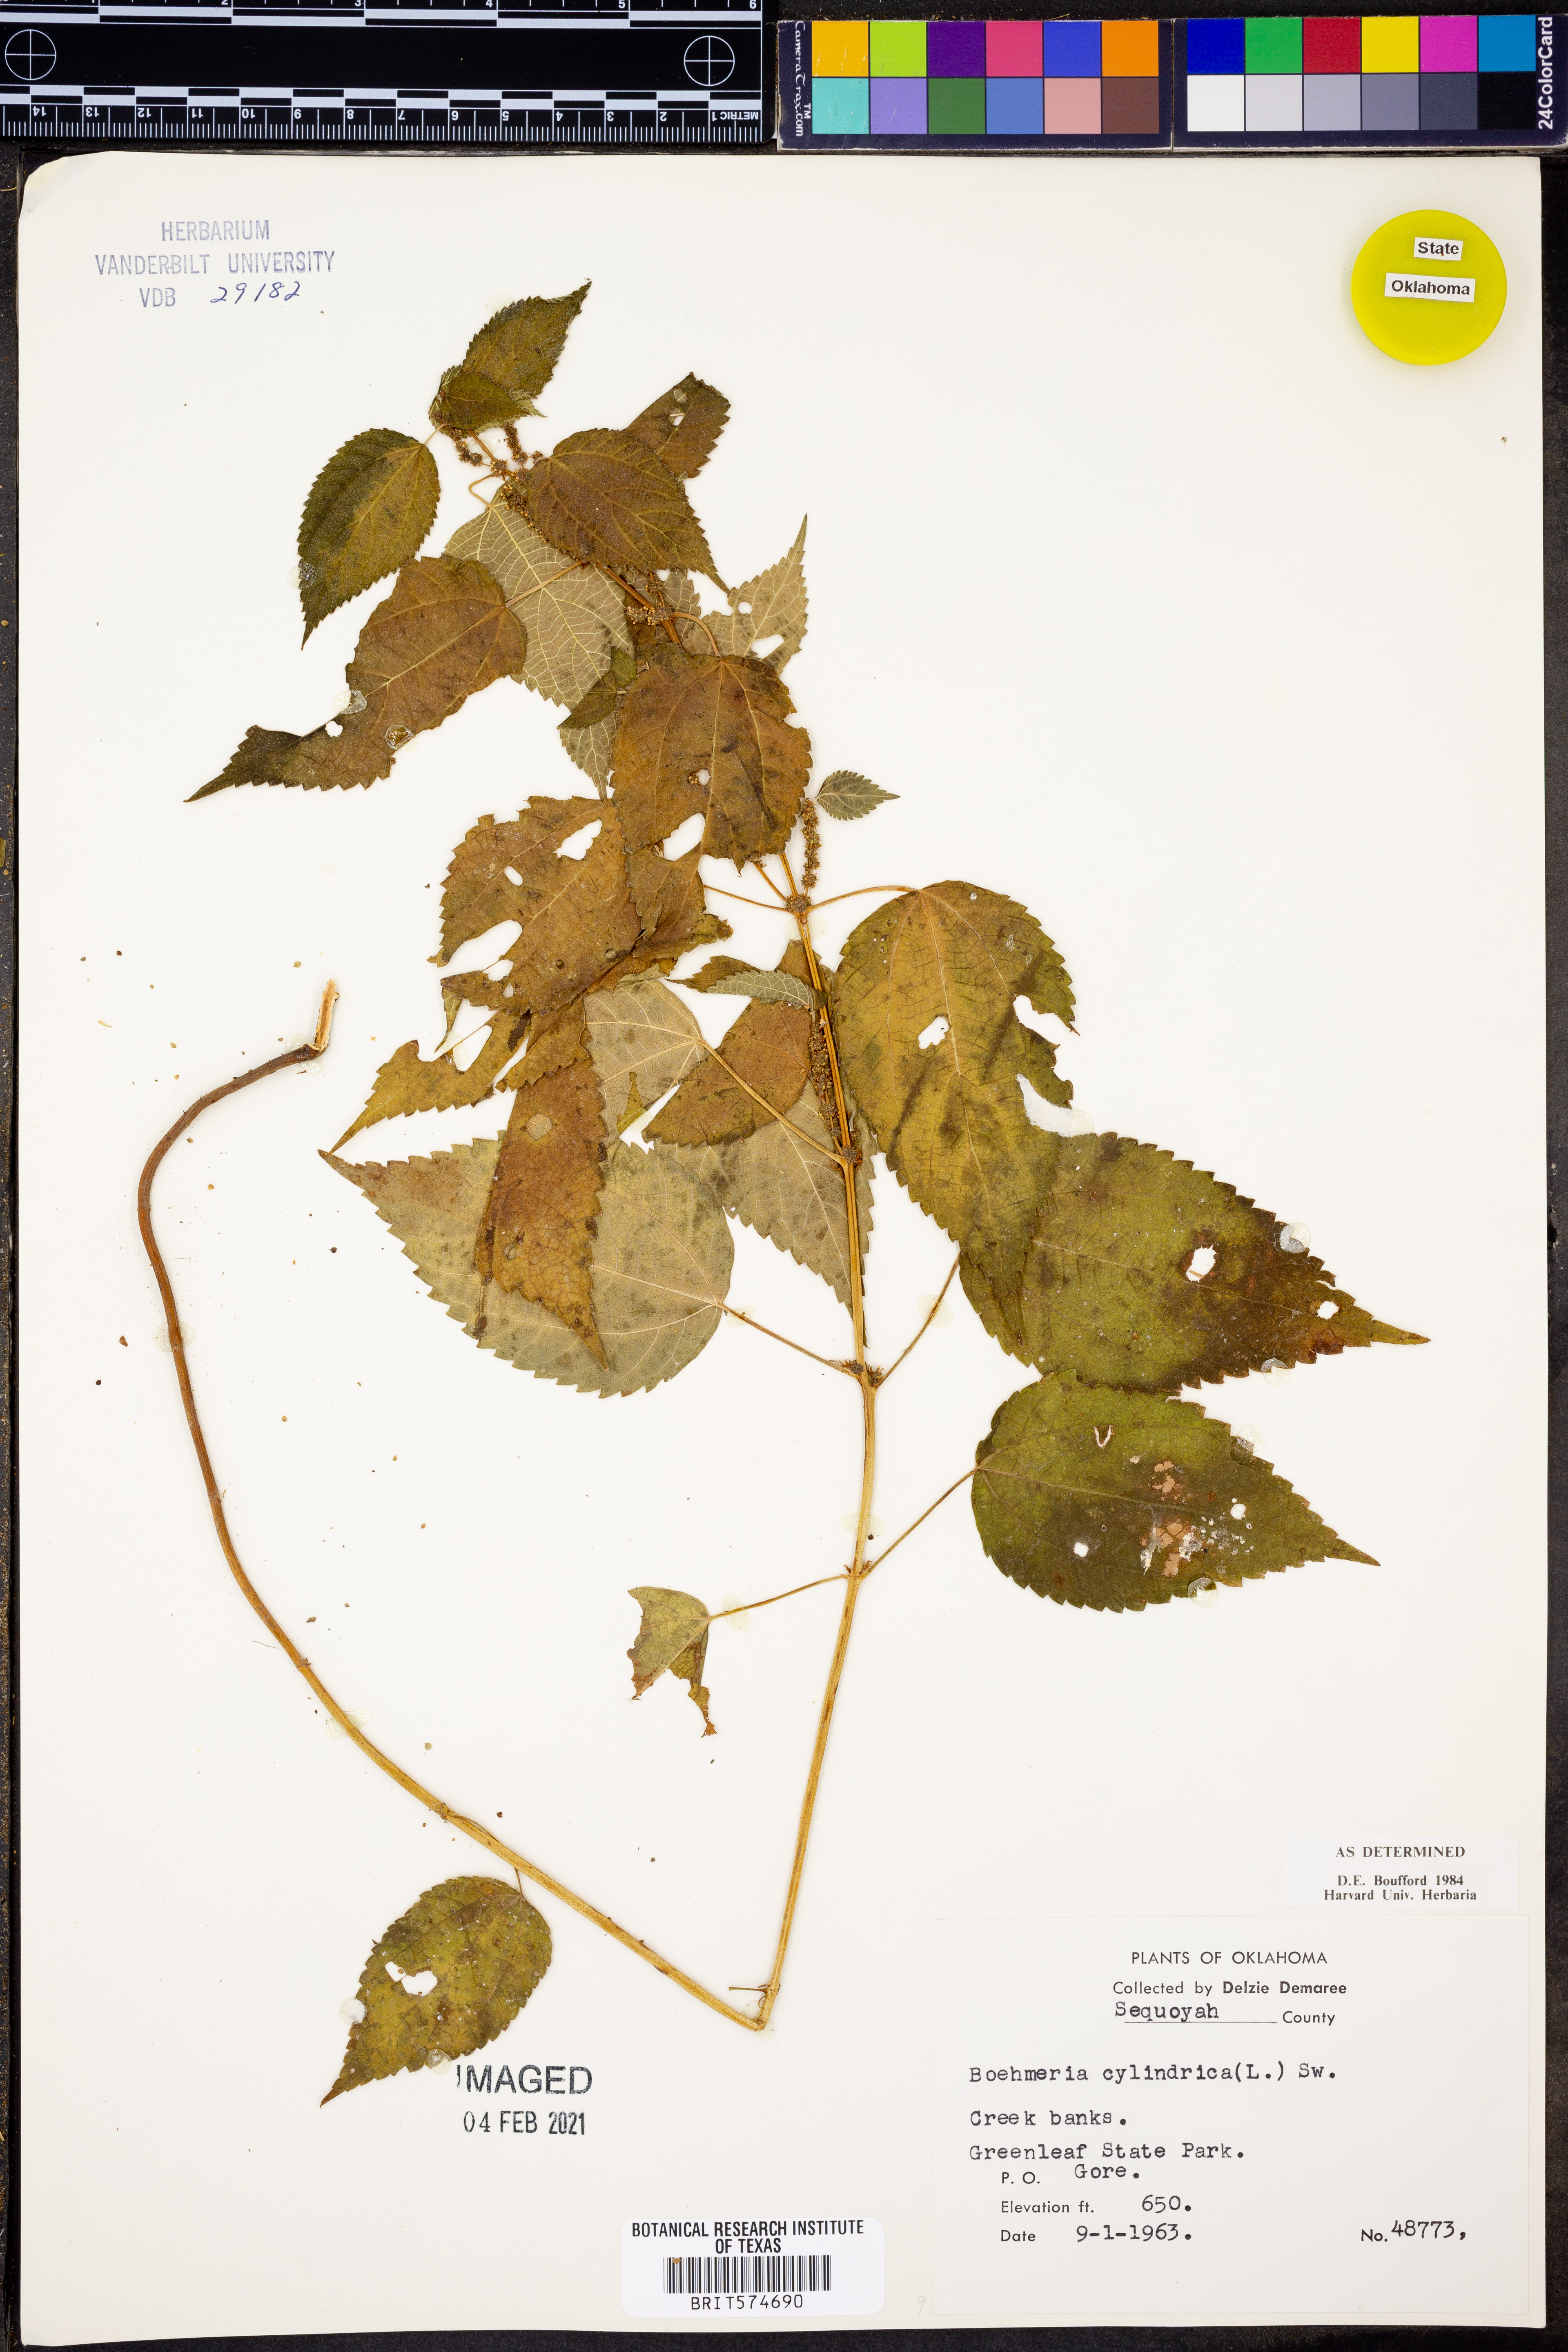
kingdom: Plantae
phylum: Tracheophyta
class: Magnoliopsida
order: Rosales
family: Urticaceae
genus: Boehmeria
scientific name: Boehmeria cylindrica
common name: Bog-hemp
